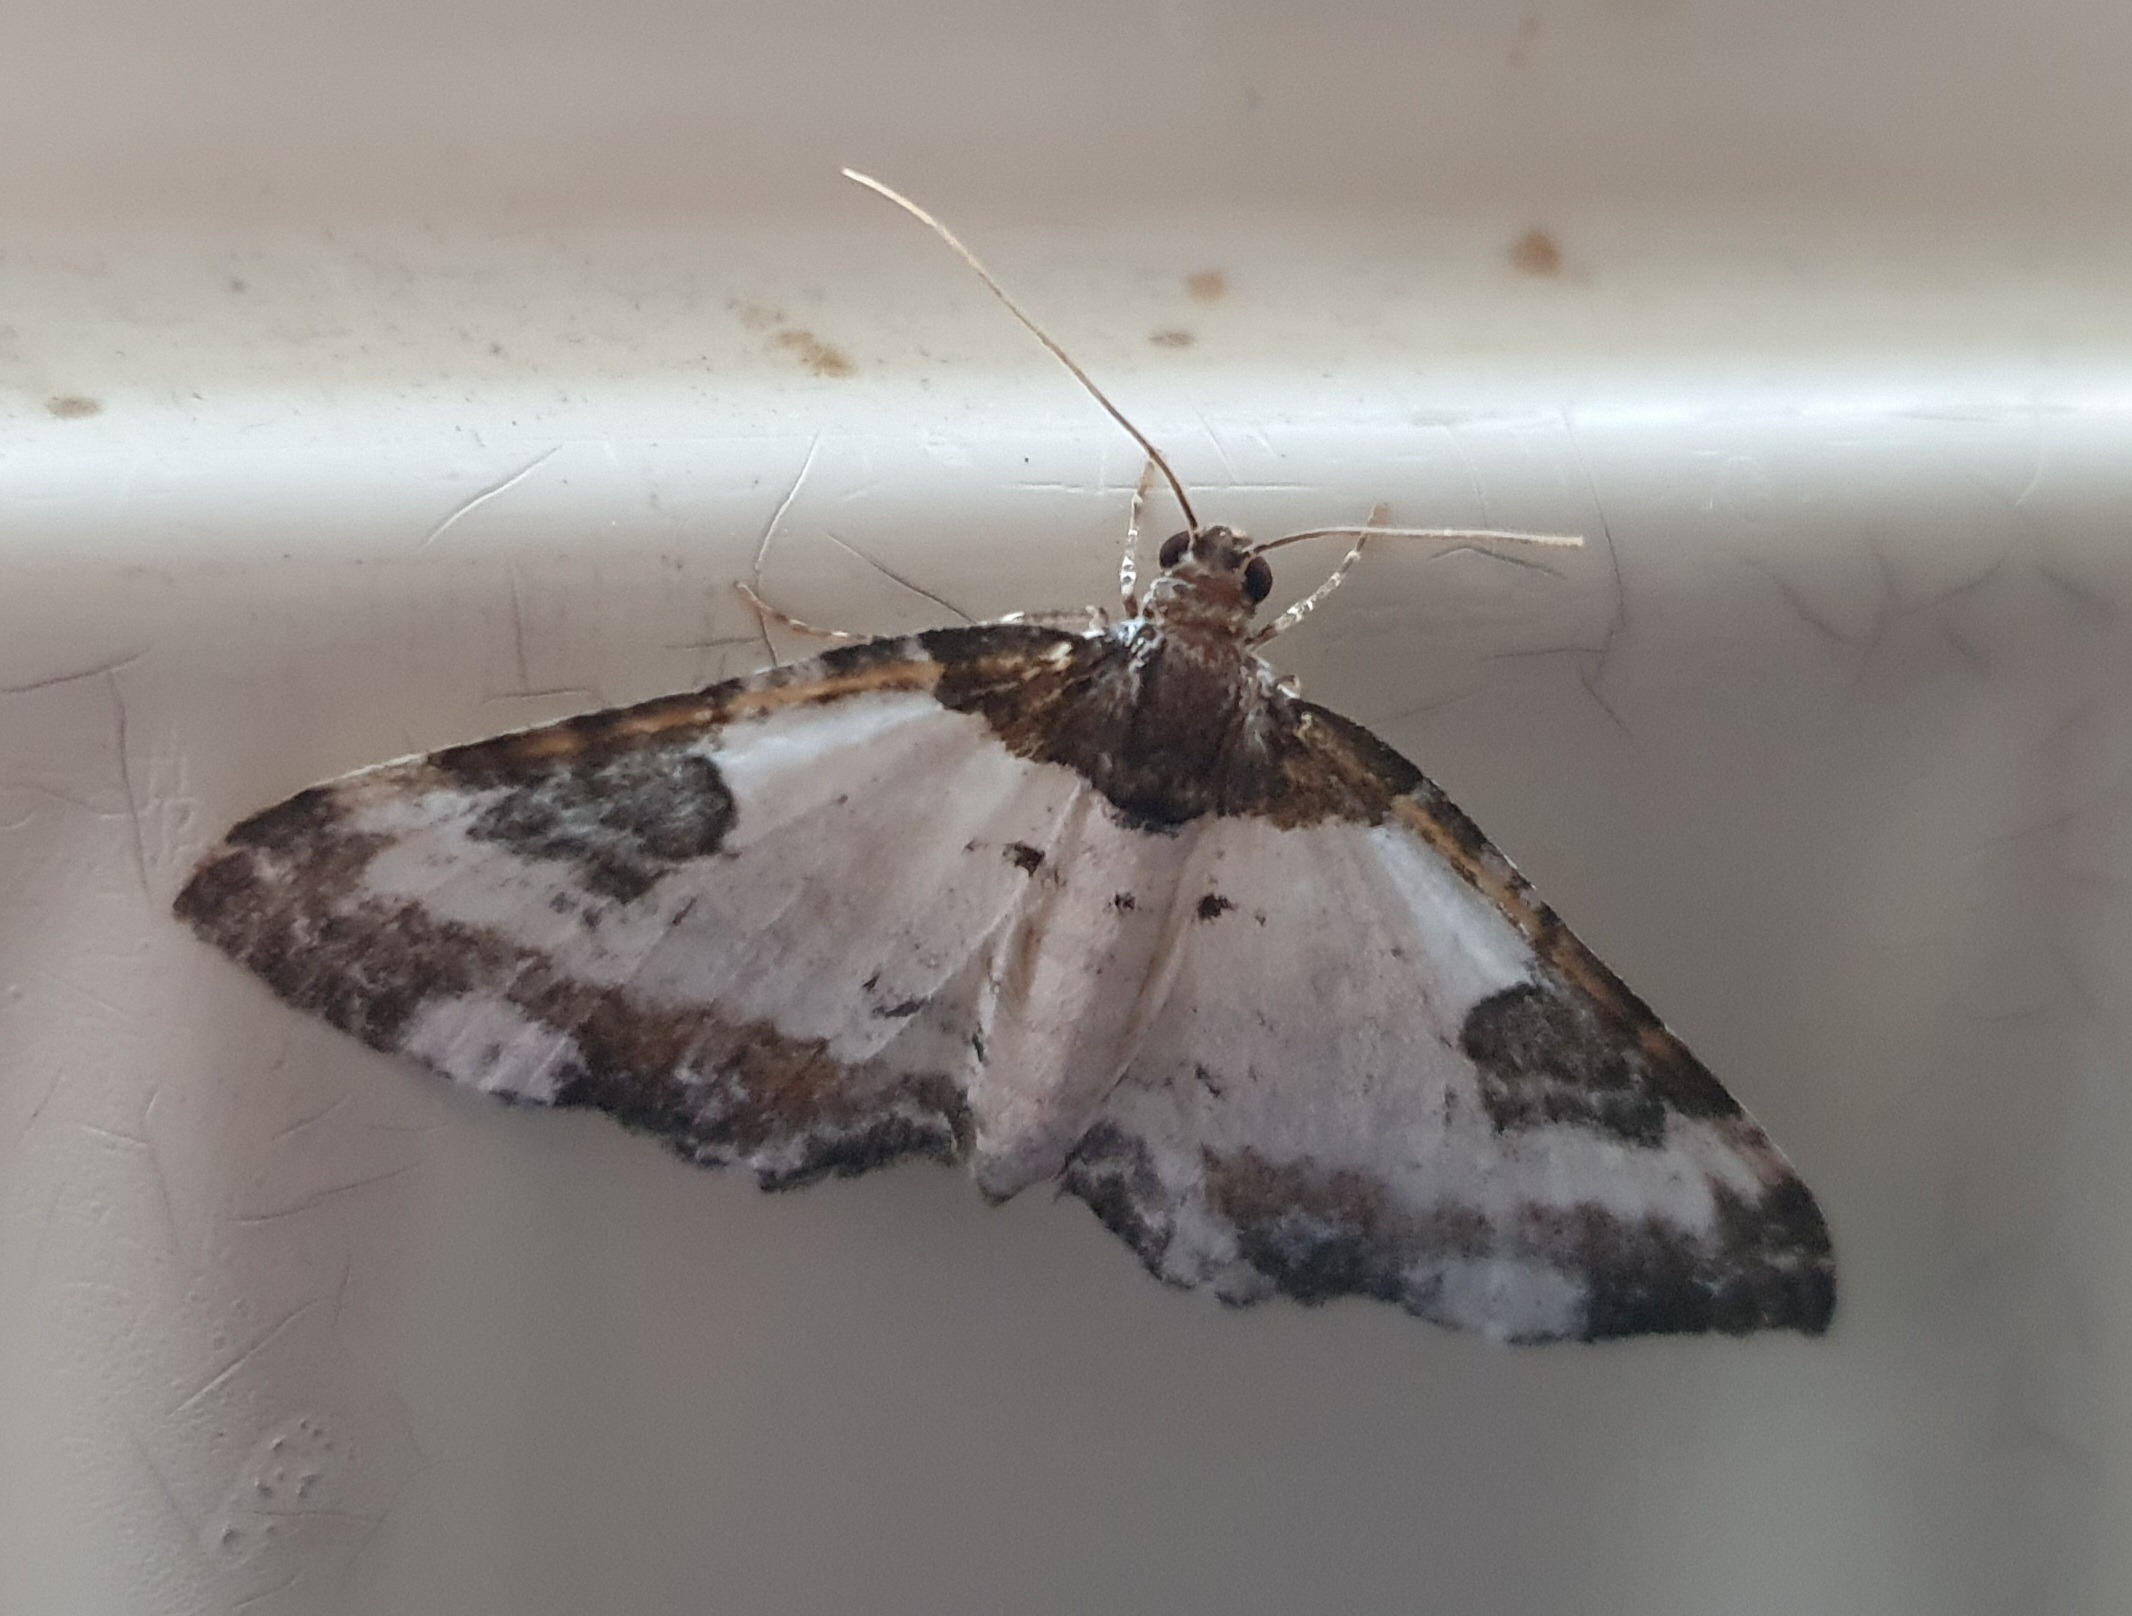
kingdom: Animalia
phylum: Arthropoda
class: Insecta
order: Lepidoptera
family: Geometridae
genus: Melanthia
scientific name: Melanthia procellata
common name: Klematismåler
